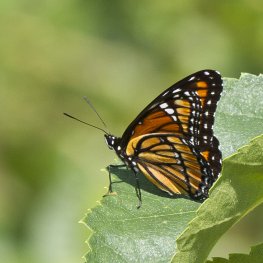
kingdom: Animalia
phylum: Arthropoda
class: Insecta
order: Lepidoptera
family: Nymphalidae
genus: Limenitis
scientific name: Limenitis archippus
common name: Viceroy
